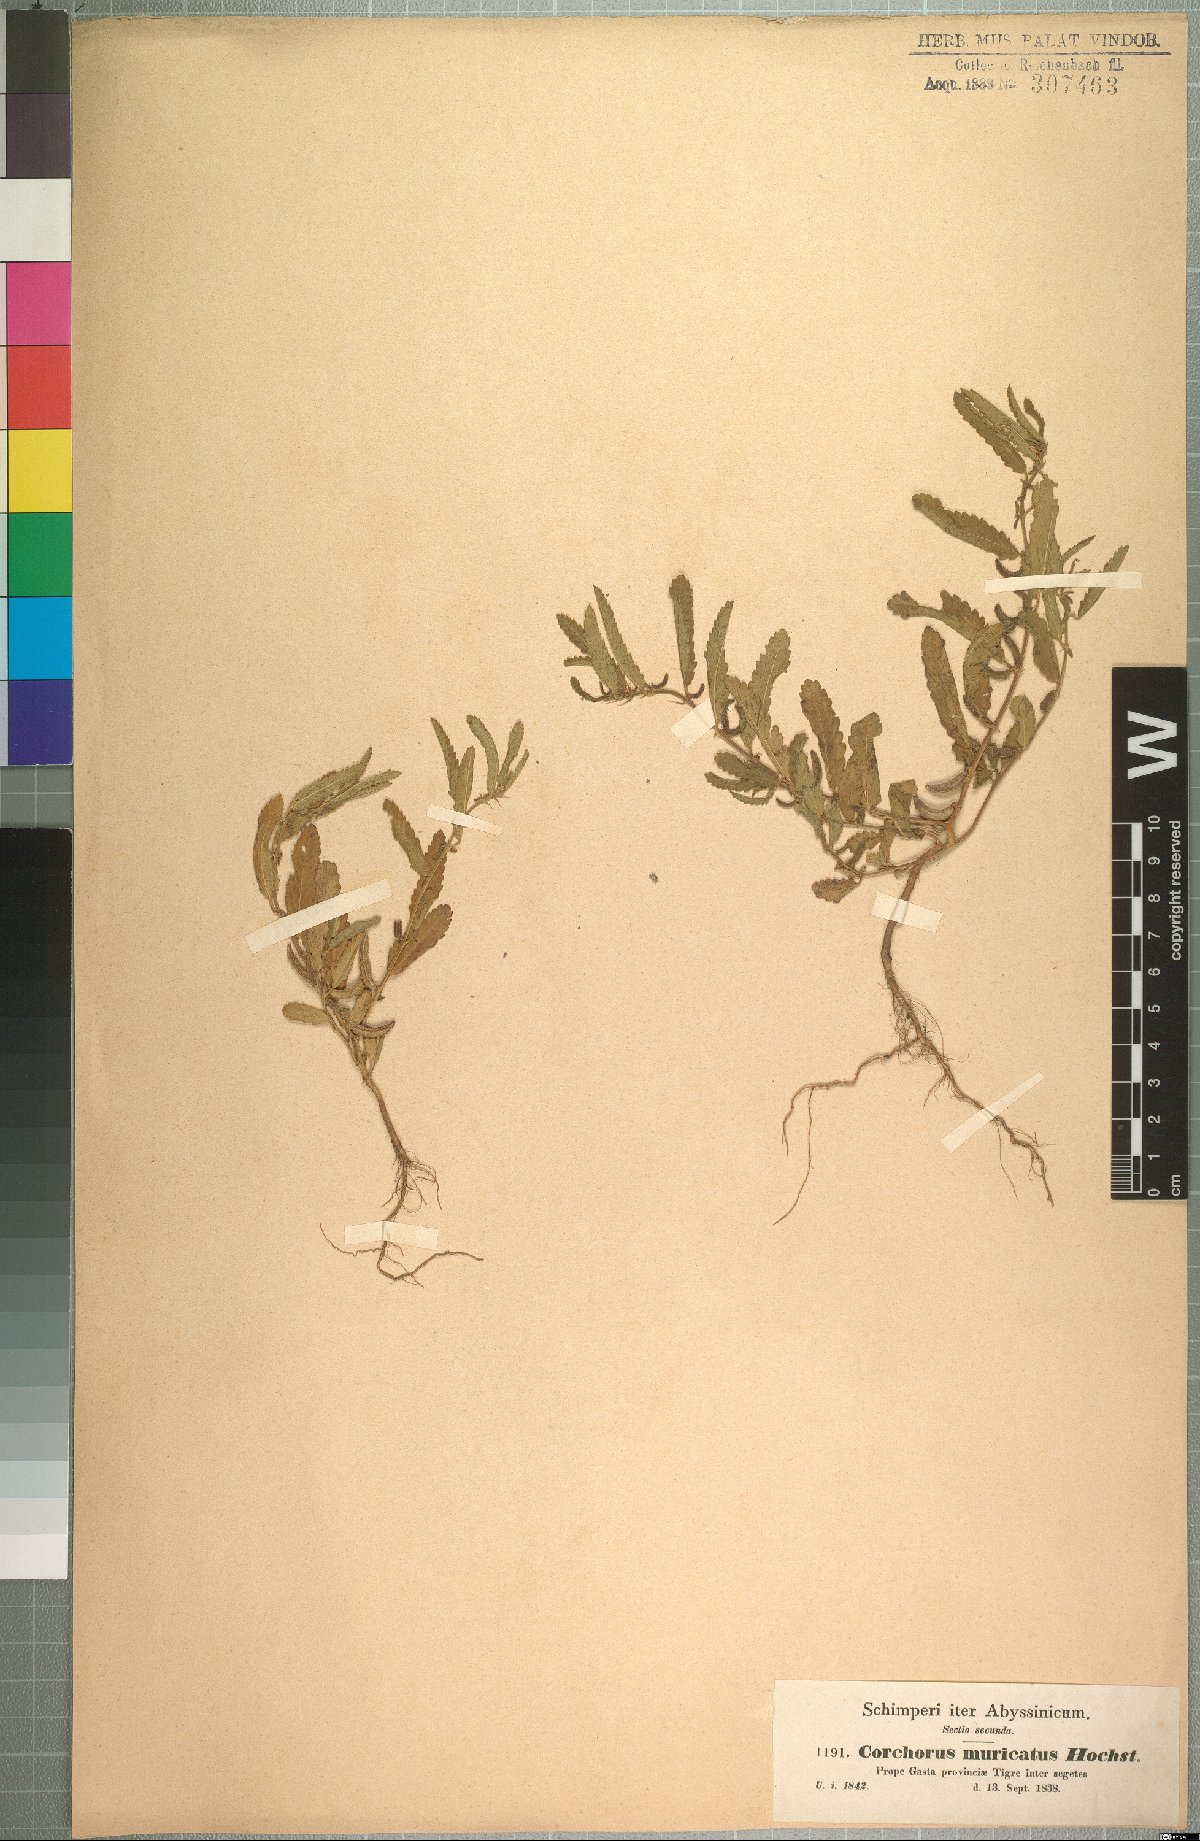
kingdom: Plantae
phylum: Tracheophyta
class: Magnoliopsida
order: Malvales
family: Malvaceae
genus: Corchorus
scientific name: Corchorus schimperi
